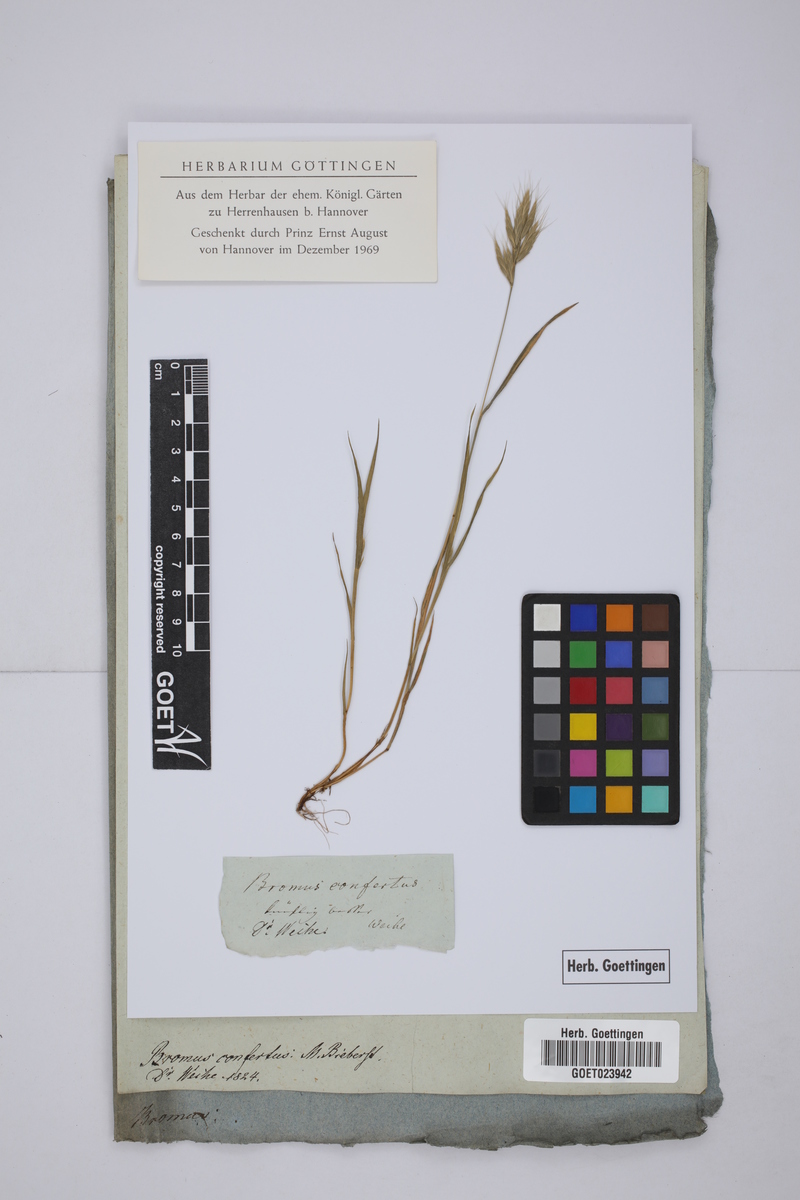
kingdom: Plantae
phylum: Tracheophyta
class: Liliopsida
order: Poales
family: Poaceae
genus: Bromus
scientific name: Bromus scoparius
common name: Broom brome
